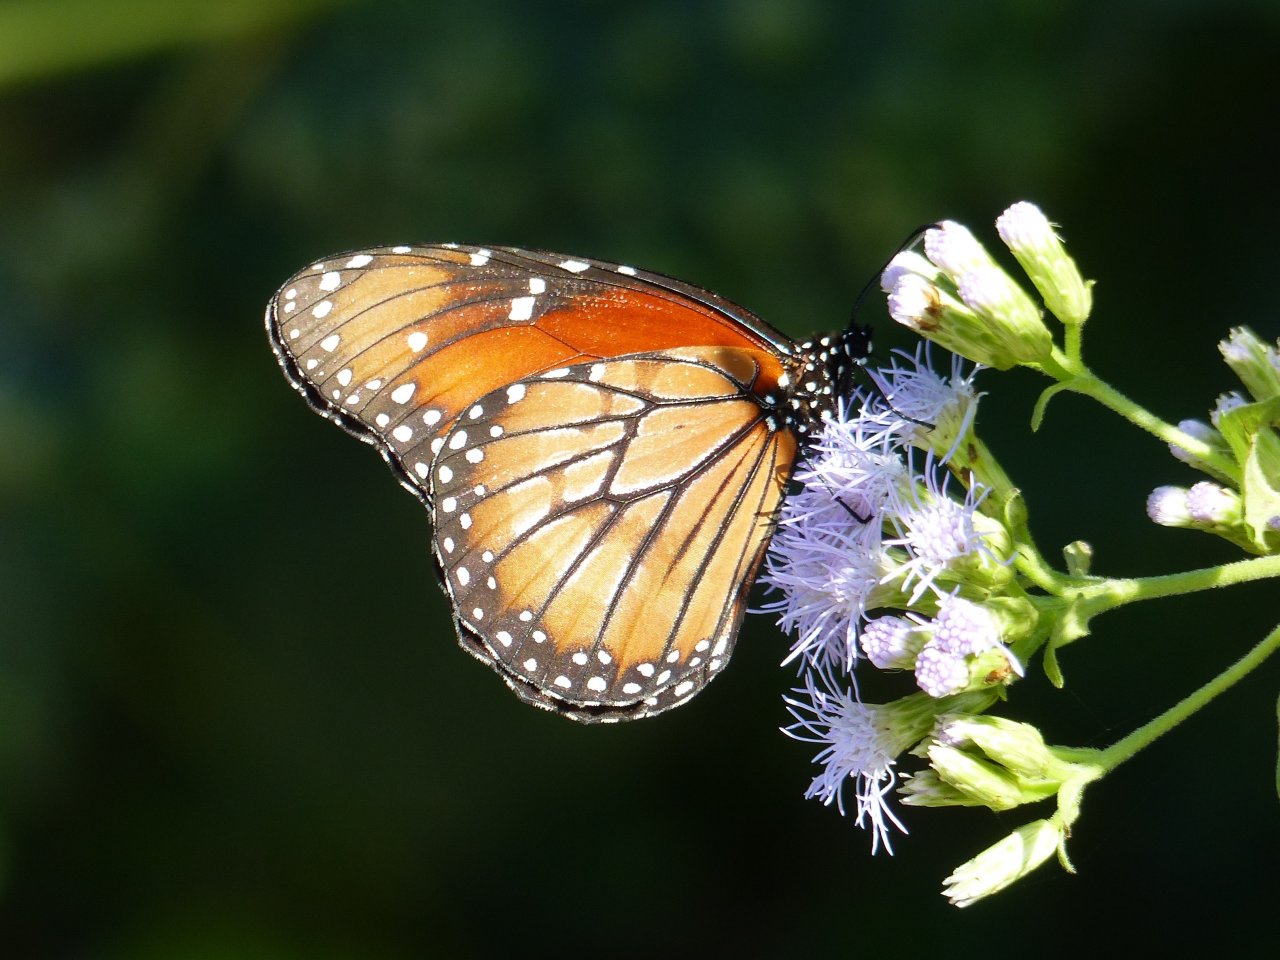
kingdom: Animalia
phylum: Arthropoda
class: Insecta
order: Lepidoptera
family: Nymphalidae
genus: Danaus
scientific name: Danaus eresimus
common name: Soldier
